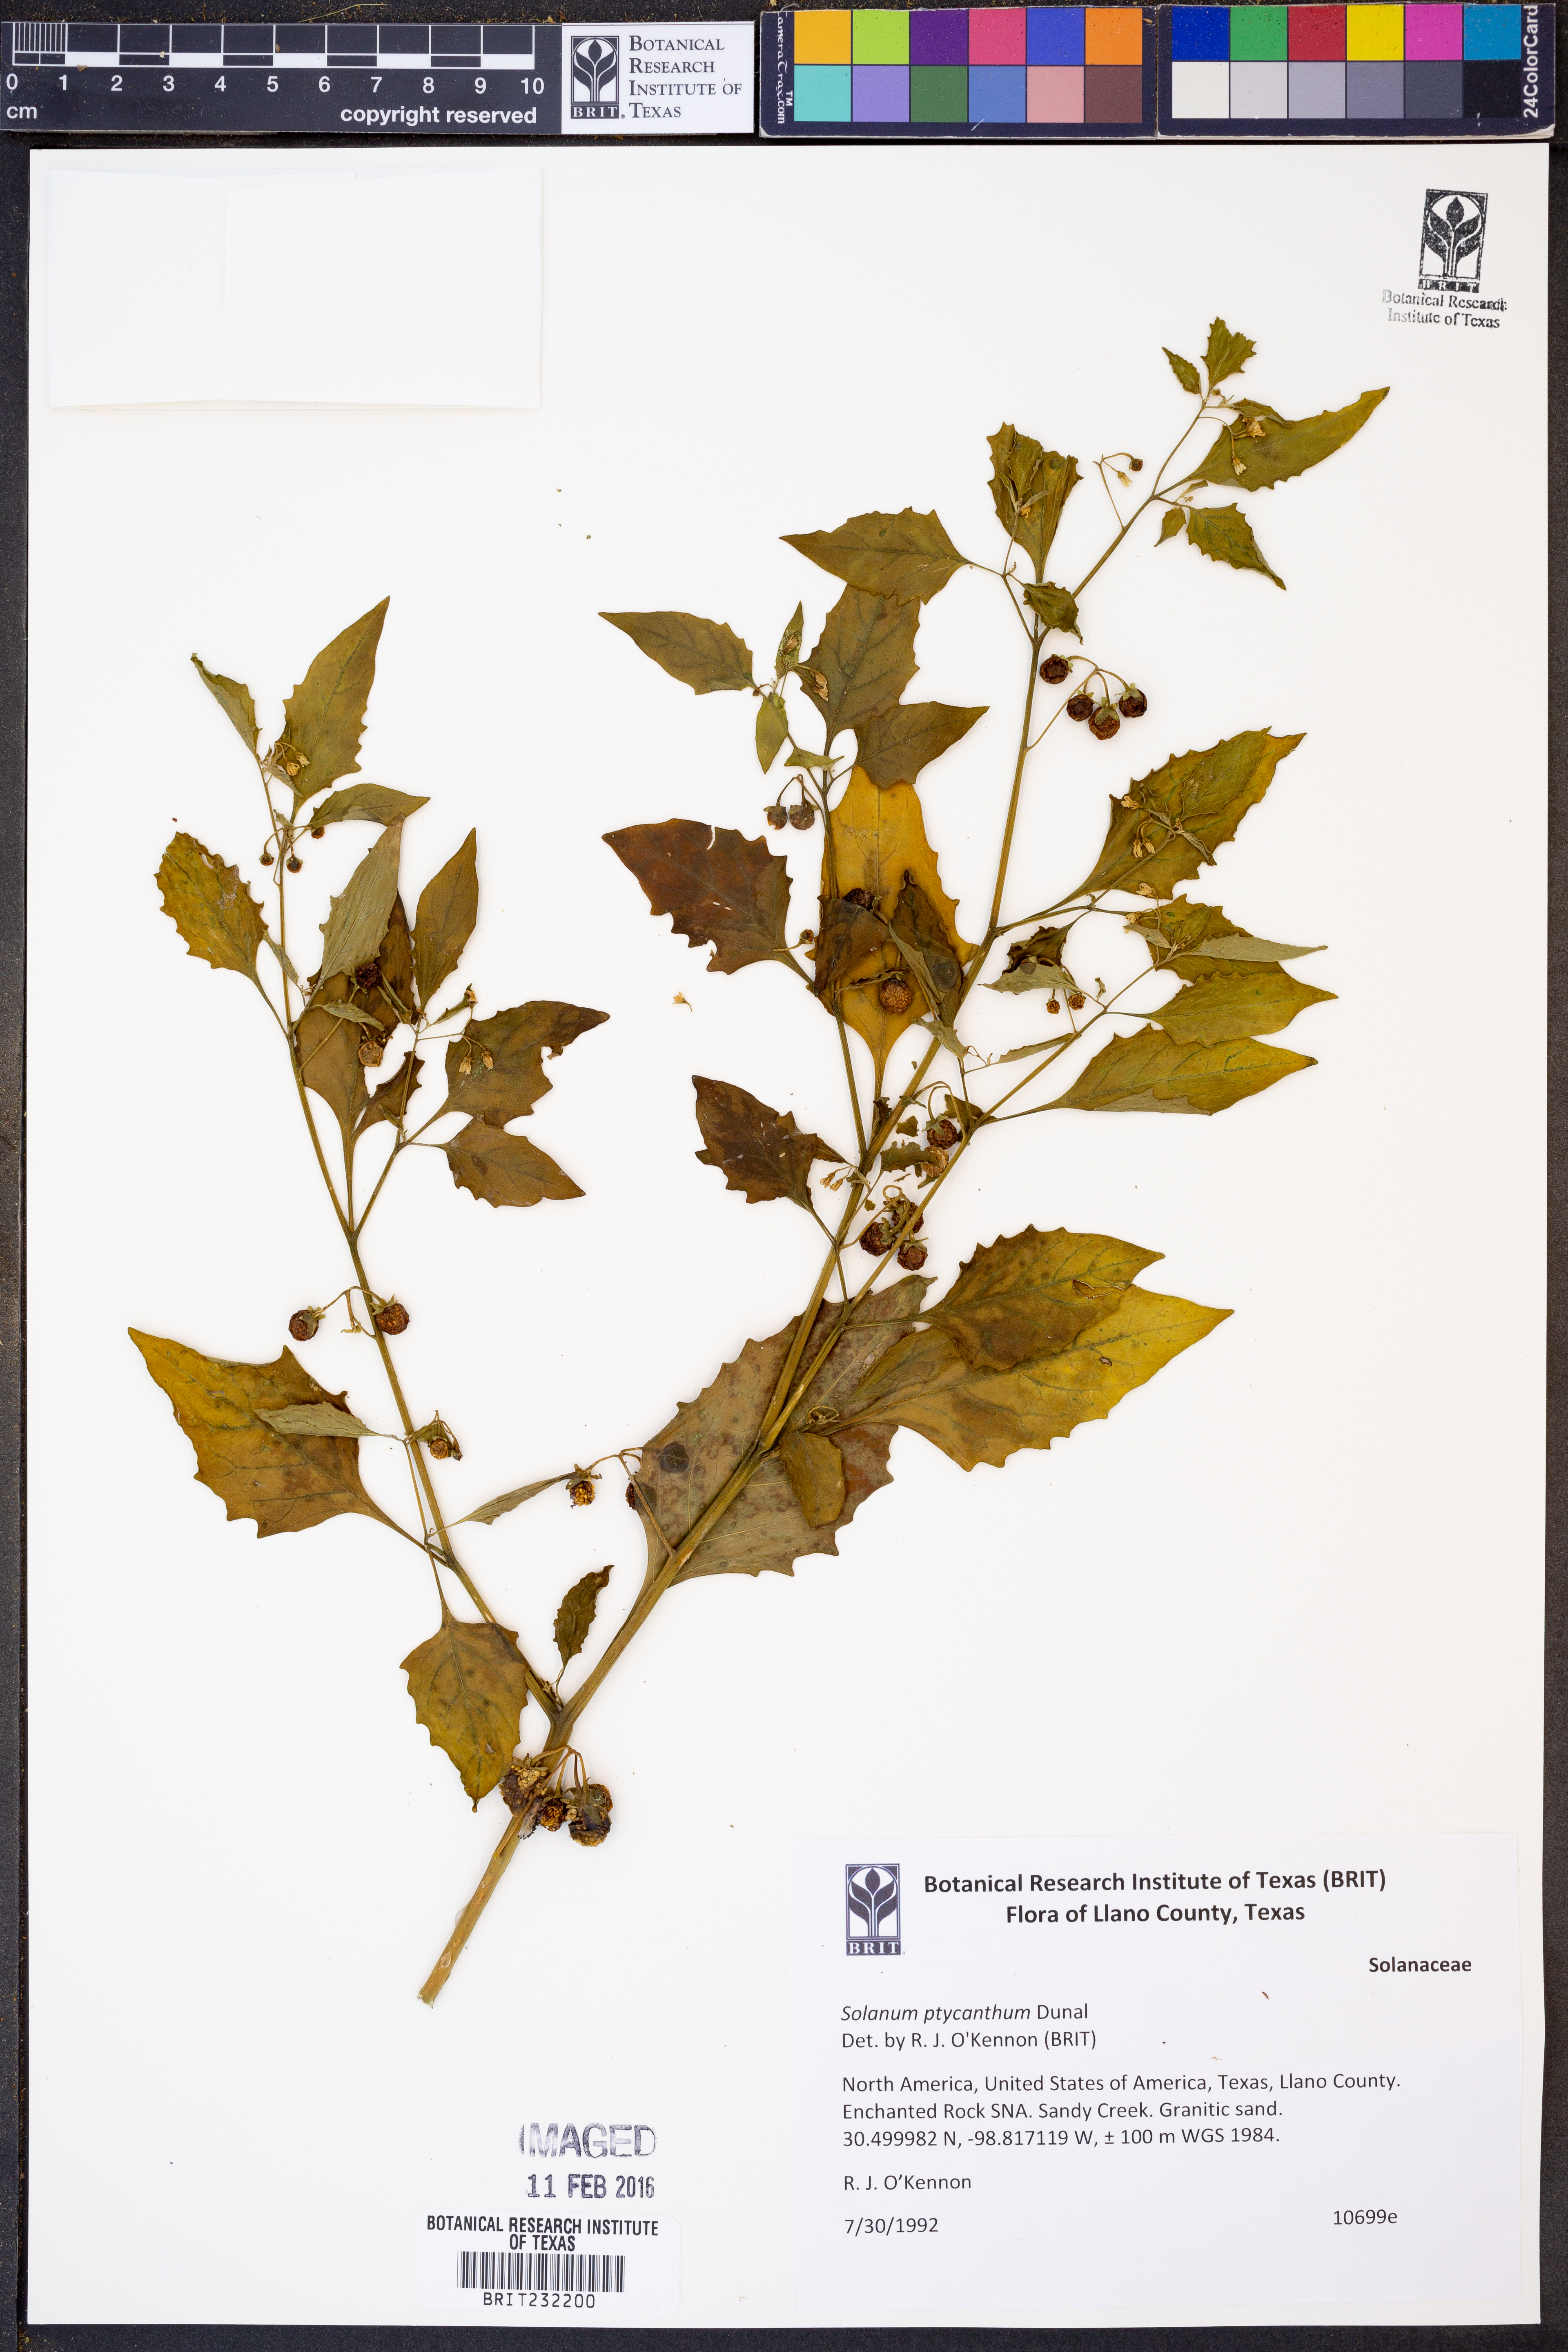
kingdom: Plantae
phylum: Tracheophyta
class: Magnoliopsida
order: Solanales
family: Solanaceae
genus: Solanum
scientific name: Solanum americanum
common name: American black nightshade
